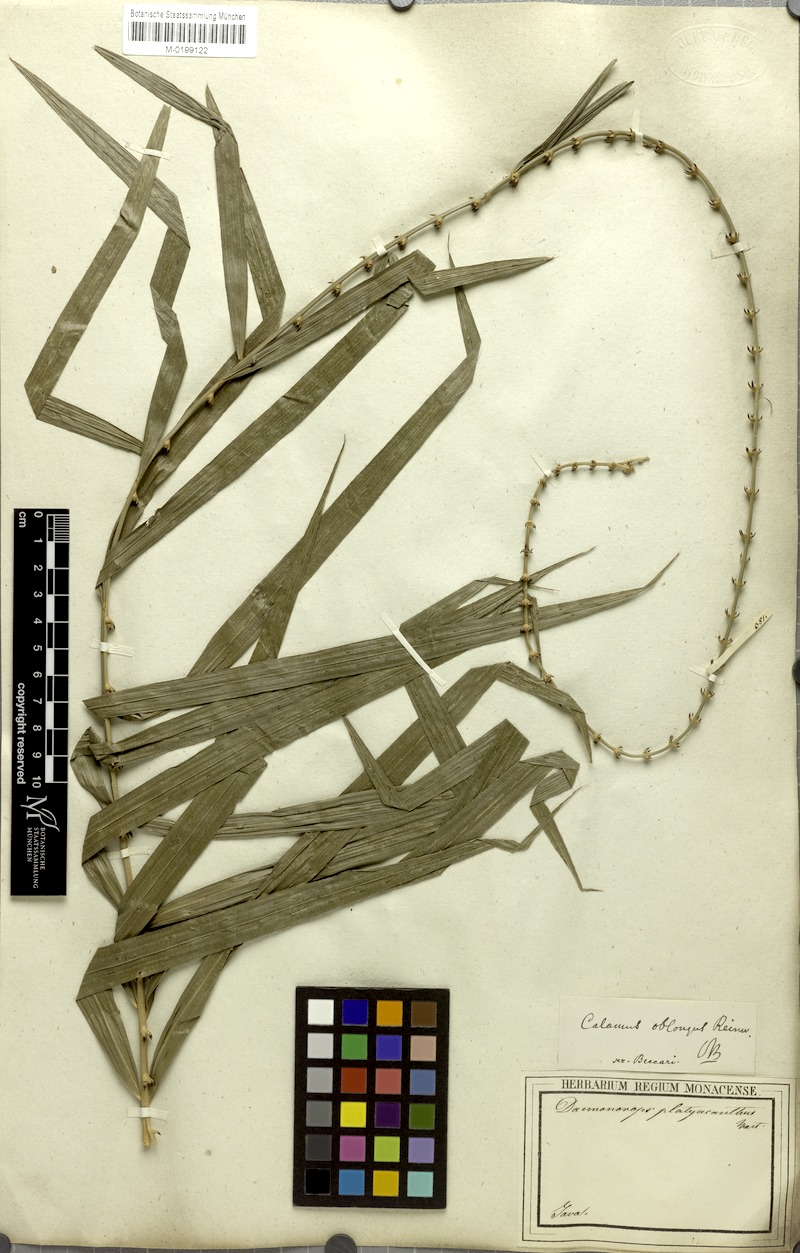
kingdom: Plantae
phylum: Tracheophyta
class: Liliopsida
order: Arecales
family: Arecaceae
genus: Calamus
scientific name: Calamus oblongus
